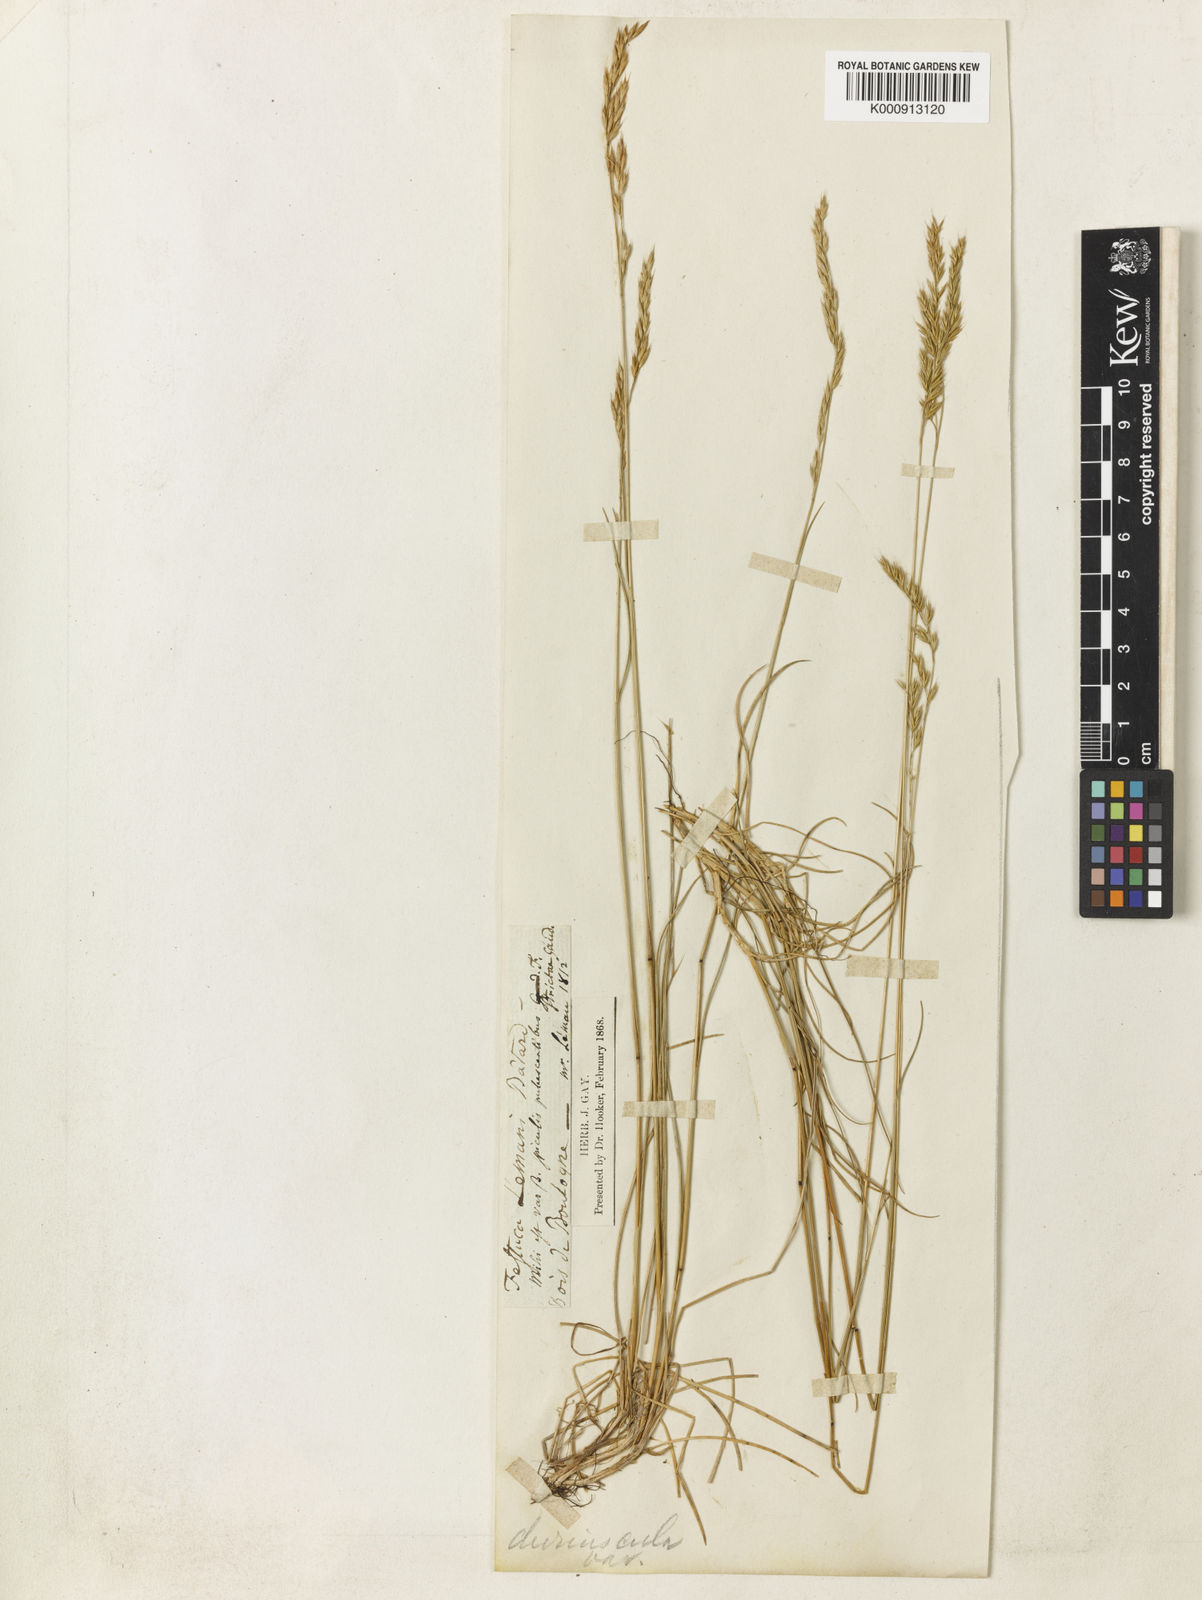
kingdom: Plantae
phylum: Tracheophyta
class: Liliopsida
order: Poales
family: Poaceae
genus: Festuca
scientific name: Festuca lemanii
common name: Confused fescue
